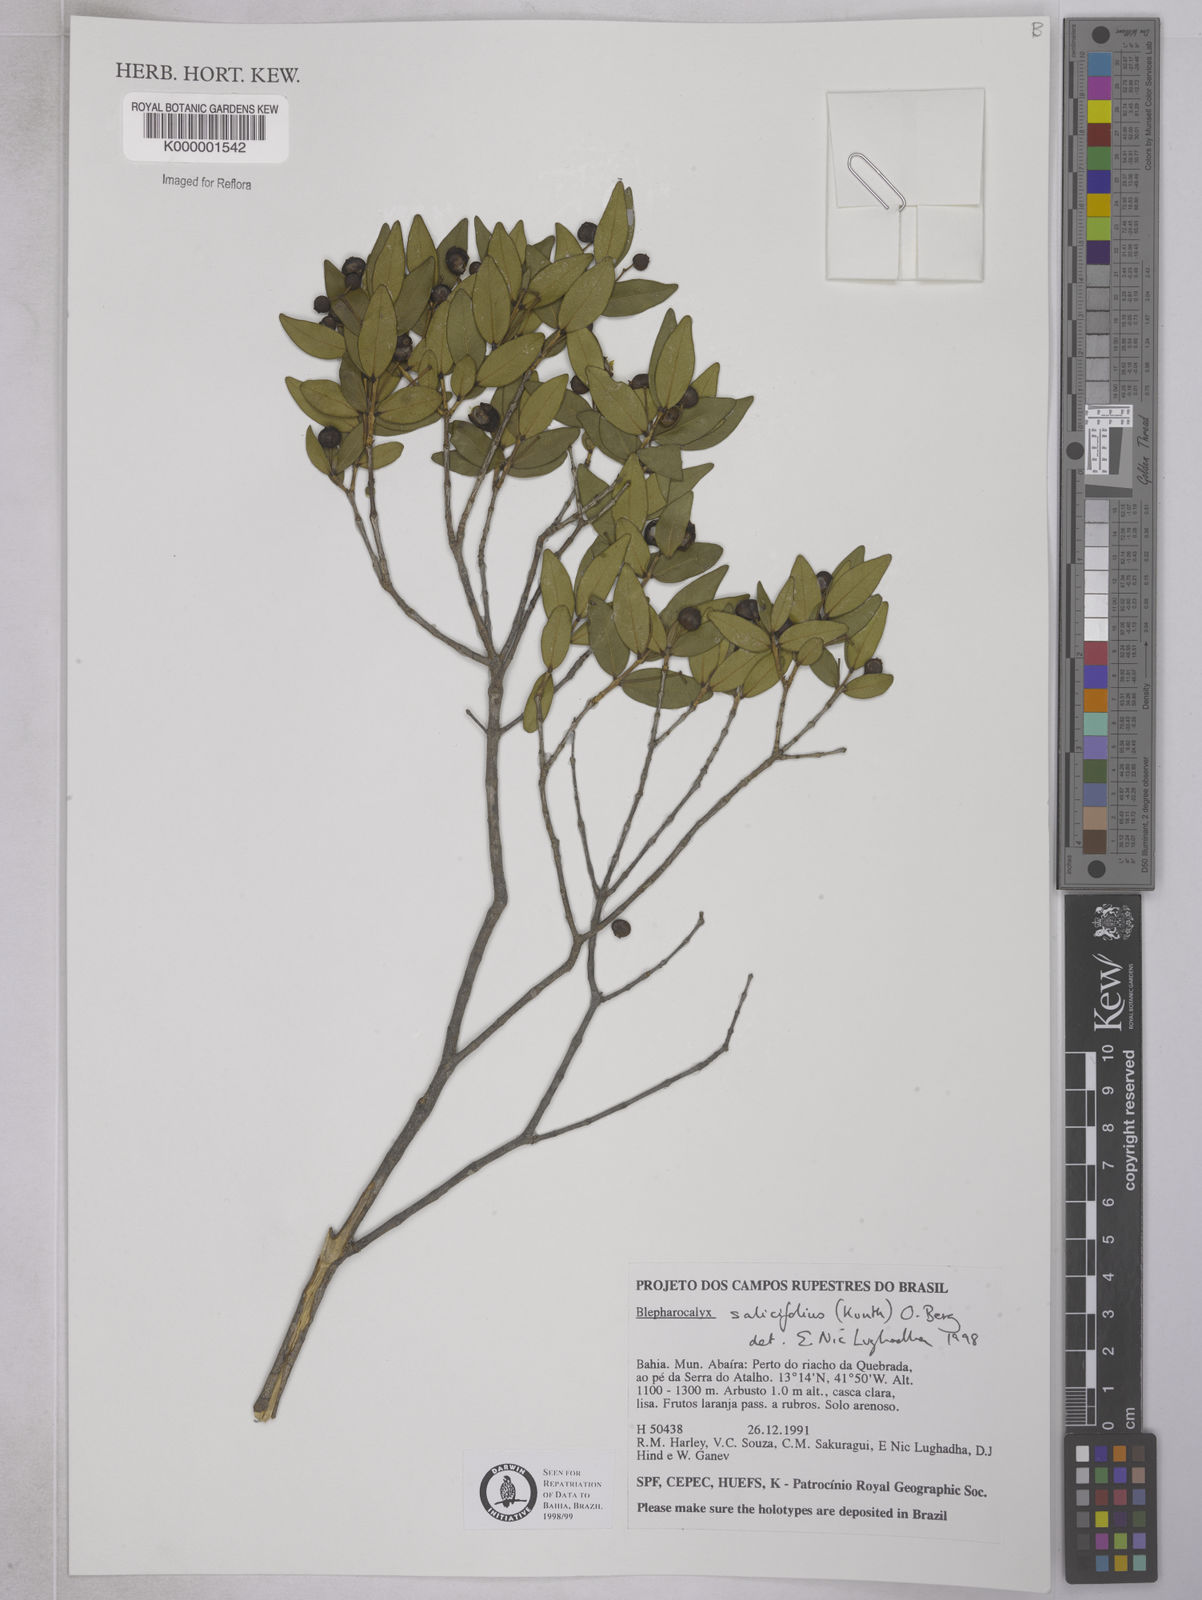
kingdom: Plantae
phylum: Tracheophyta
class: Magnoliopsida
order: Myrtales
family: Myrtaceae
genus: Blepharocalyx
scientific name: Blepharocalyx salicifolius
